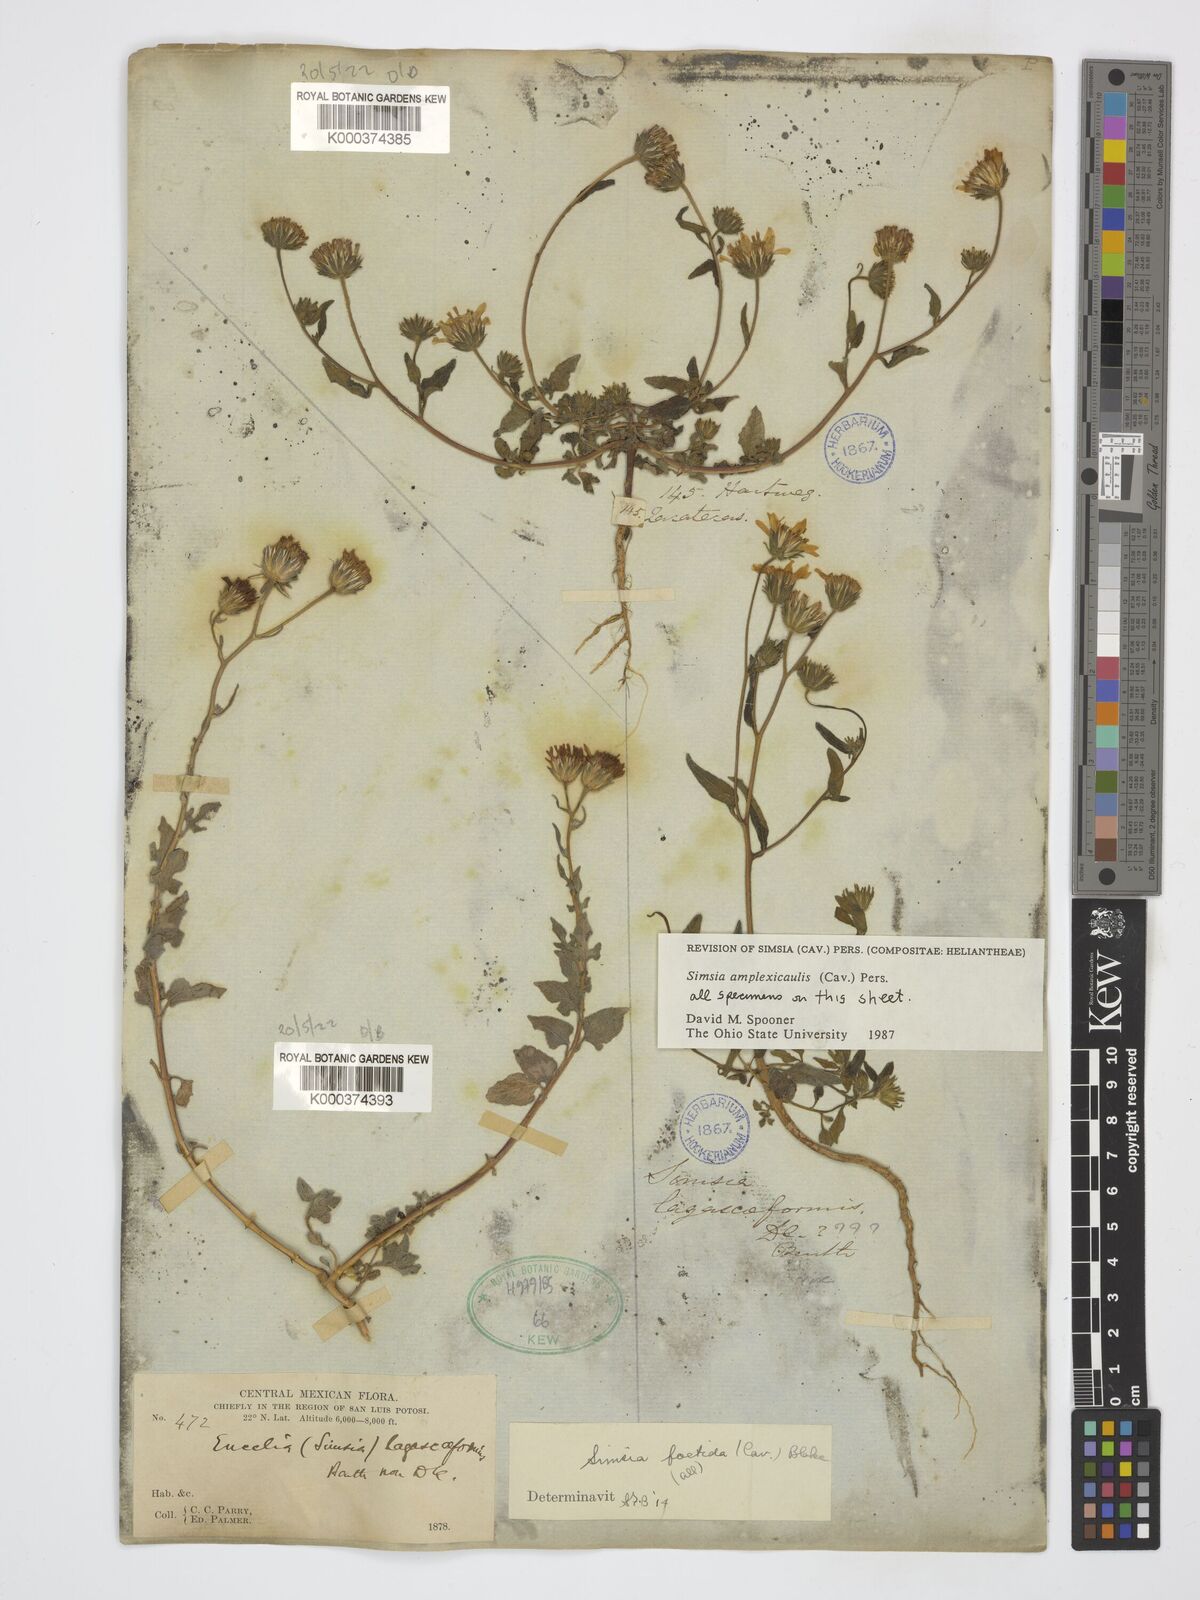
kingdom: Plantae
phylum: Tracheophyta
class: Magnoliopsida
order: Asterales
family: Asteraceae
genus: Simsia
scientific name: Simsia amplexicaulis
